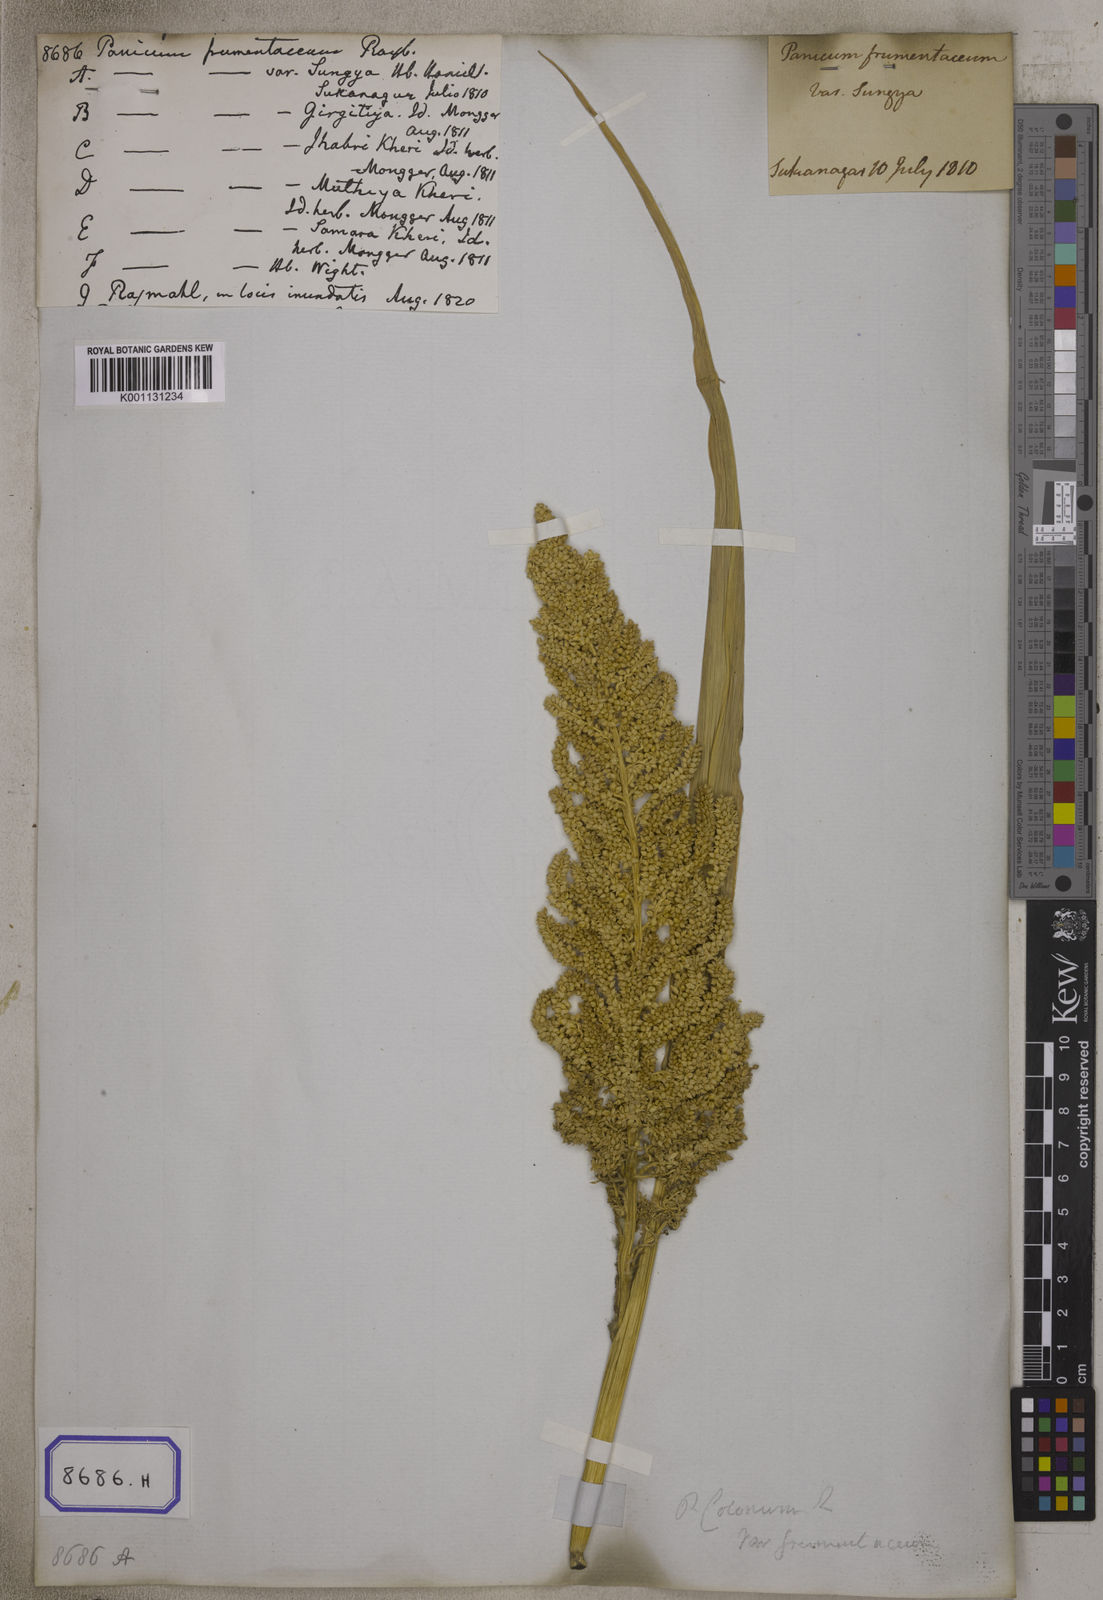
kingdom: Plantae
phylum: Tracheophyta
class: Liliopsida
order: Poales
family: Poaceae
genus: Panicum
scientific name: Panicum
